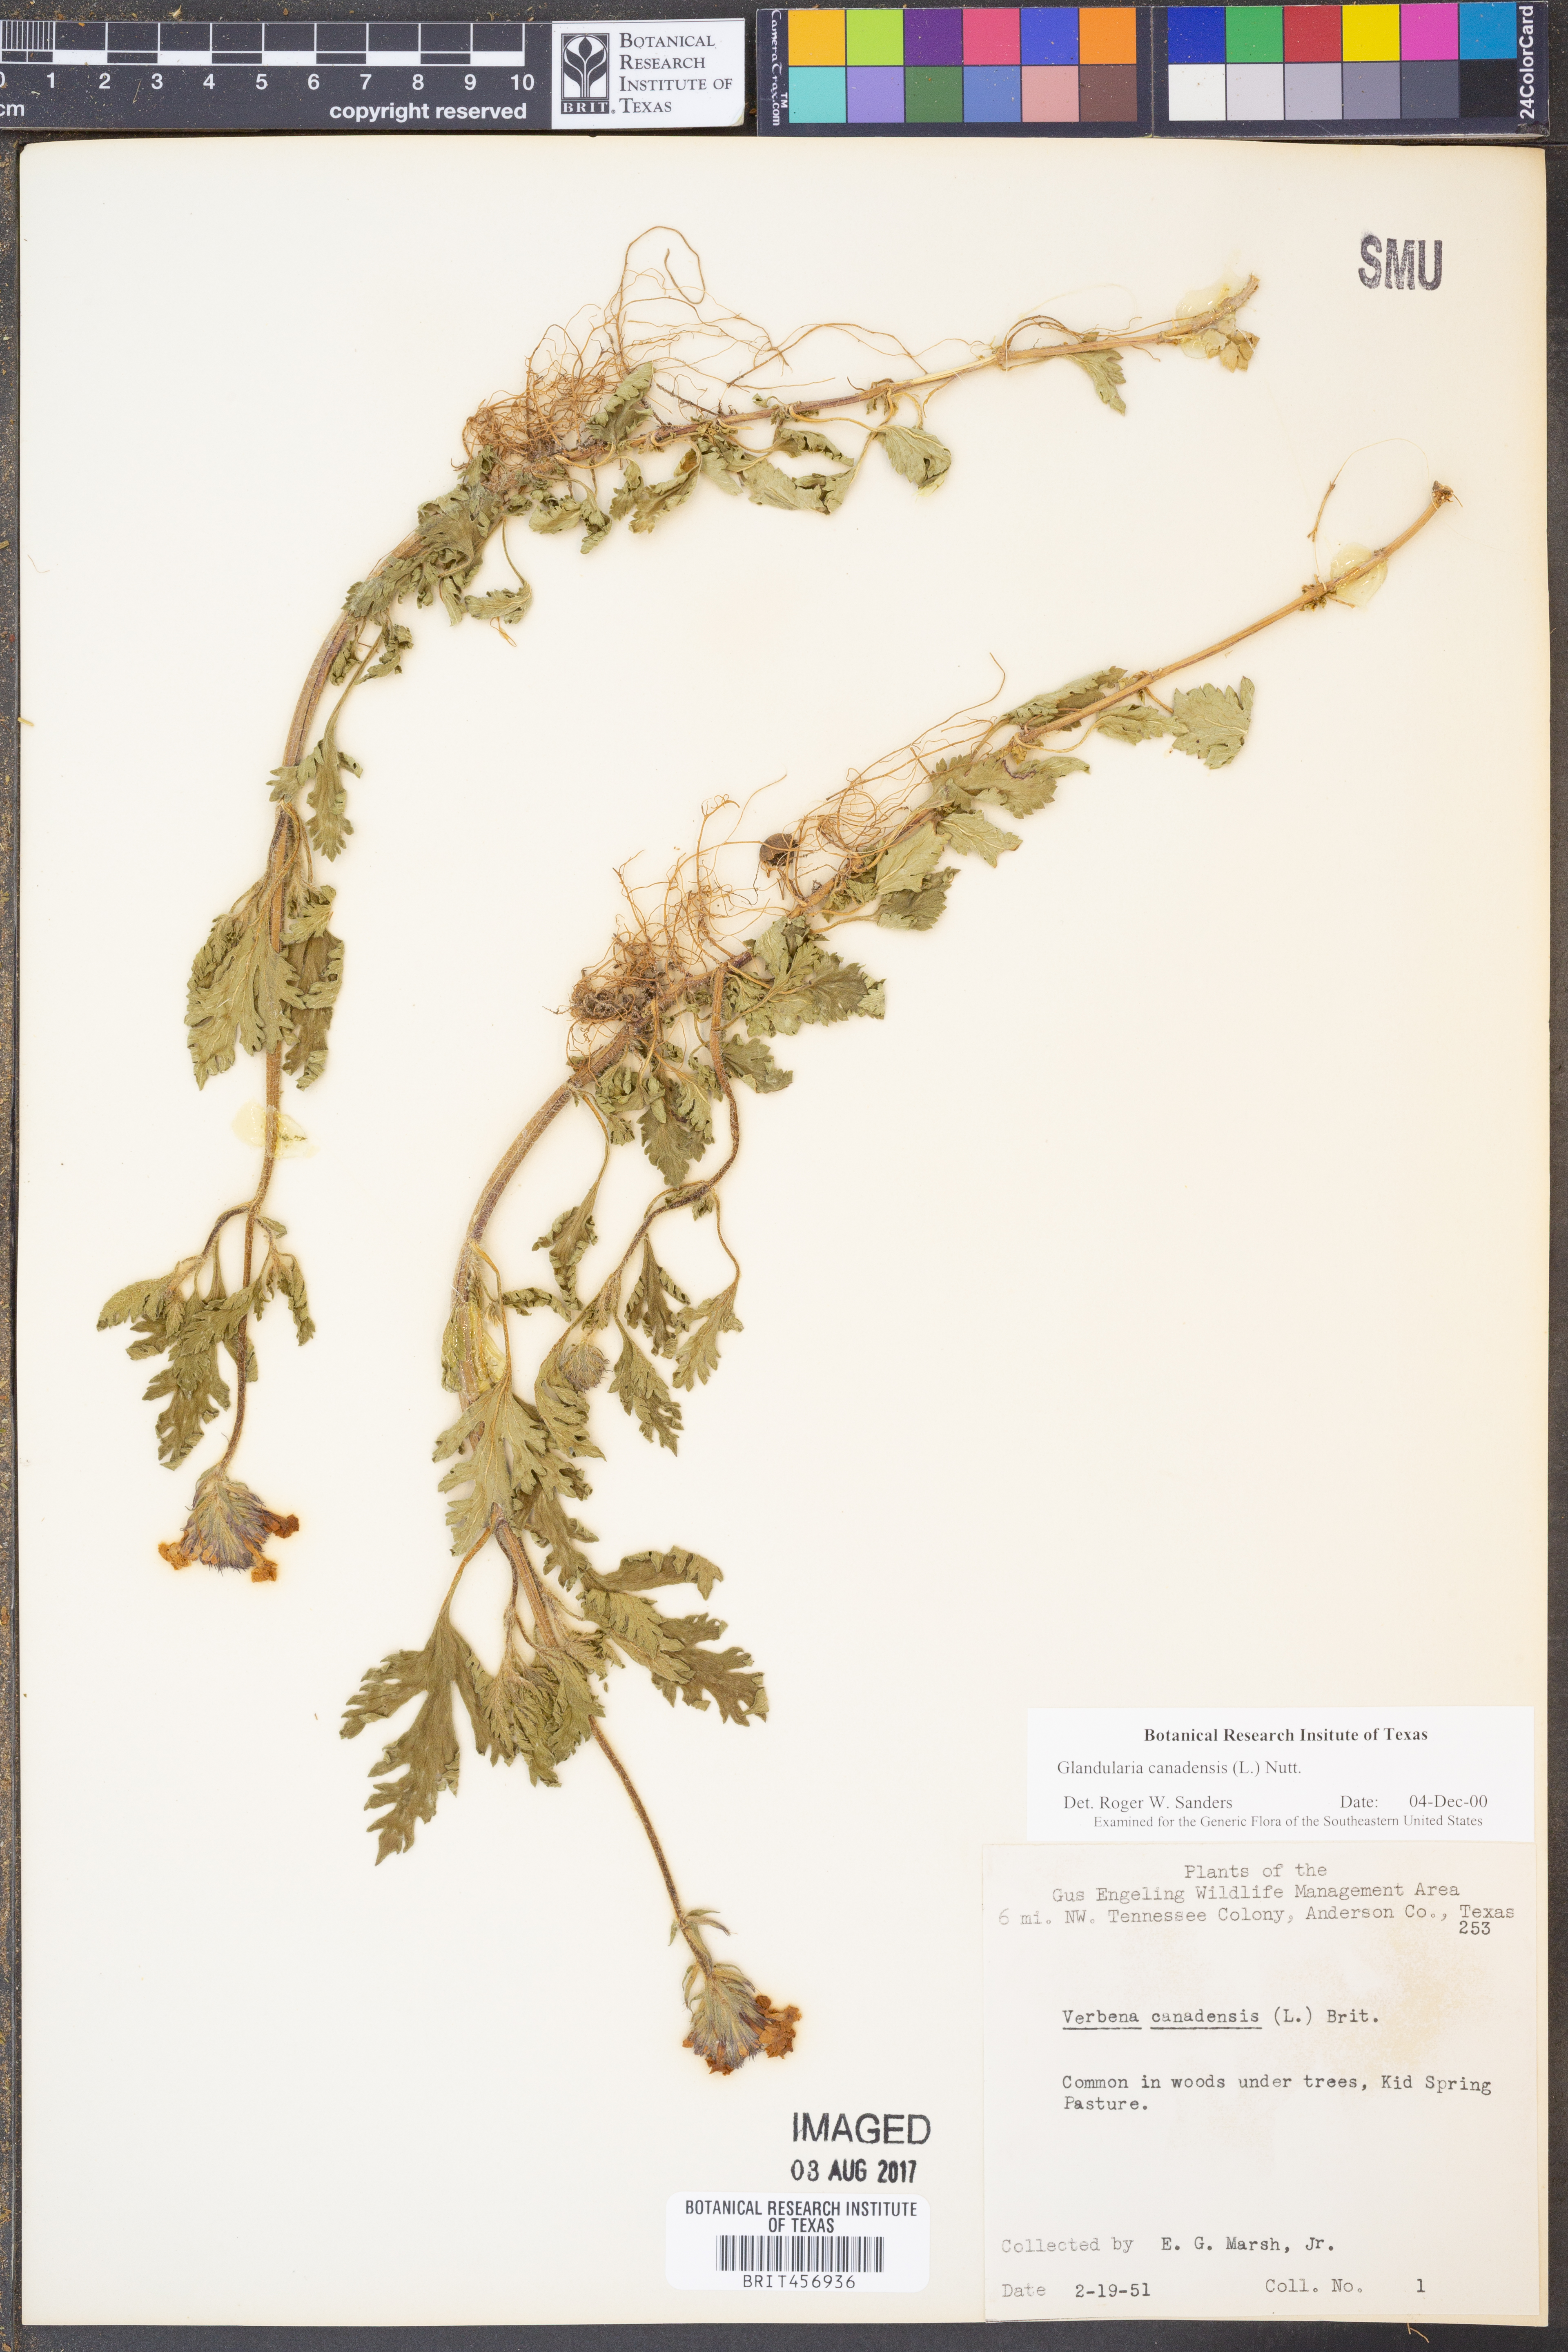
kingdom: Plantae
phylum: Tracheophyta
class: Magnoliopsida
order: Lamiales
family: Verbenaceae
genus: Verbena
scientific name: Verbena canadensis
